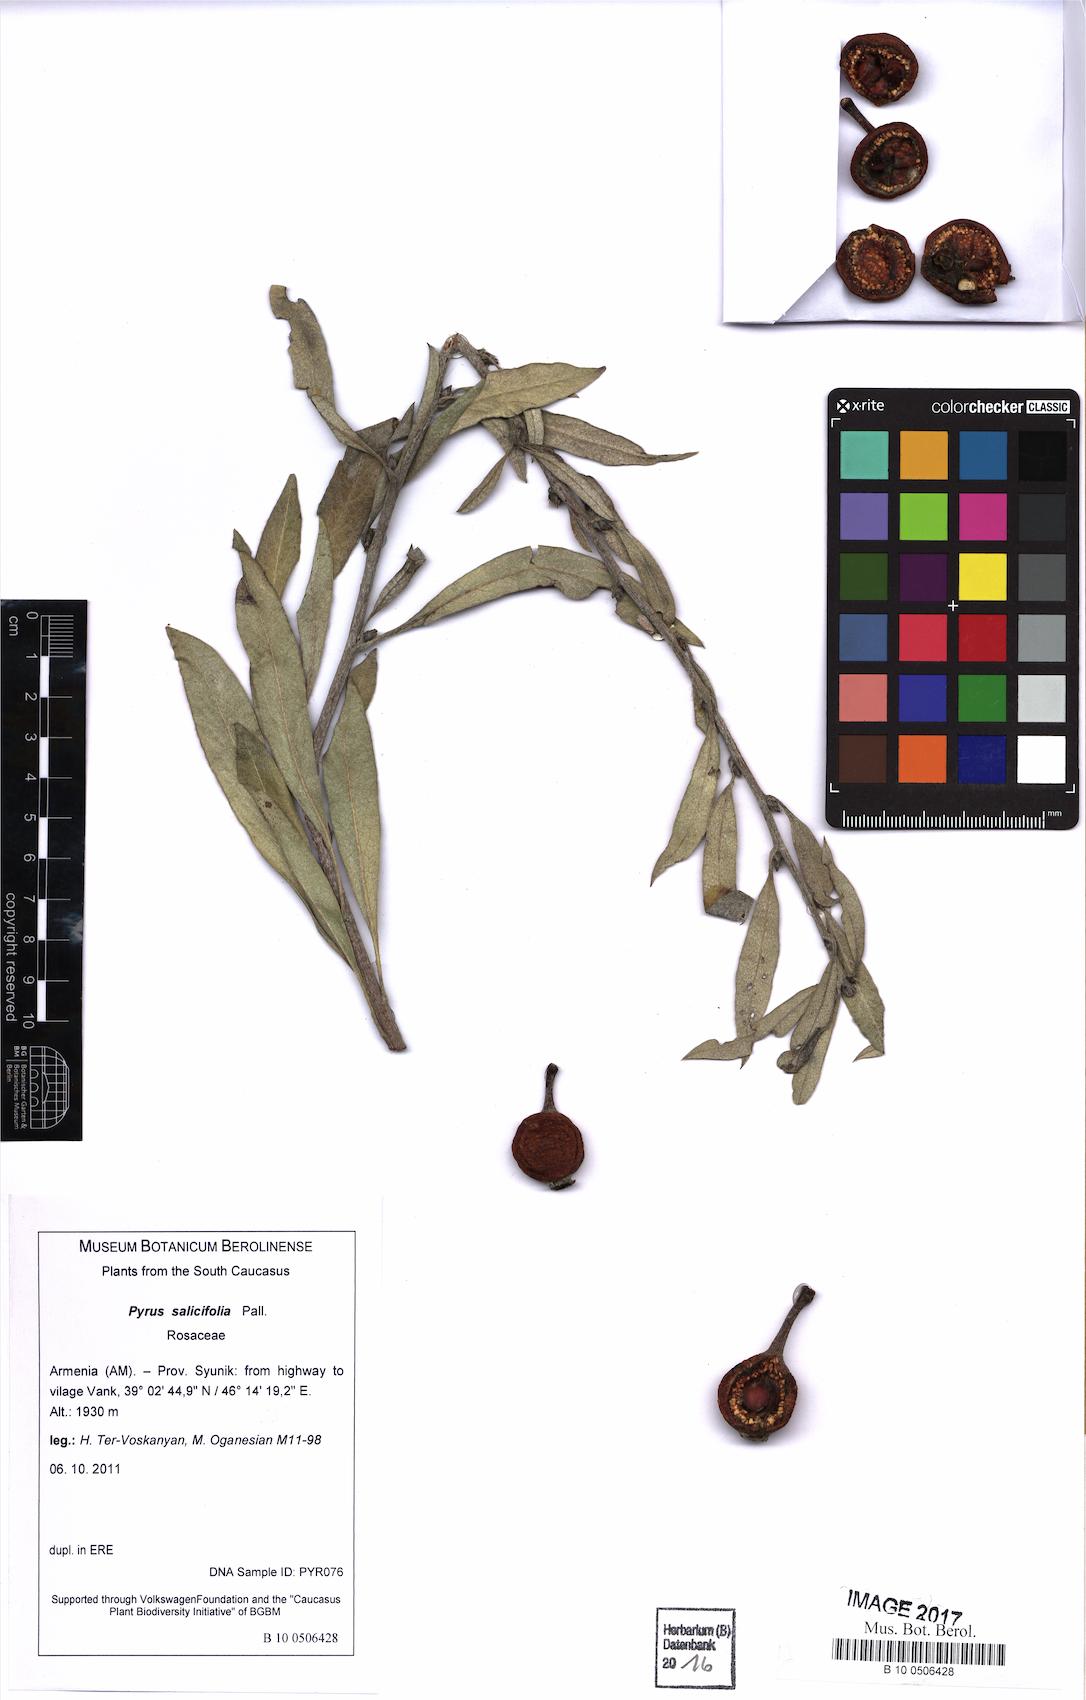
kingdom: Plantae
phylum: Tracheophyta
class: Magnoliopsida
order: Rosales
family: Rosaceae
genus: Pyrus
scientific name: Pyrus salicifolia
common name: Willow-leaved pear
